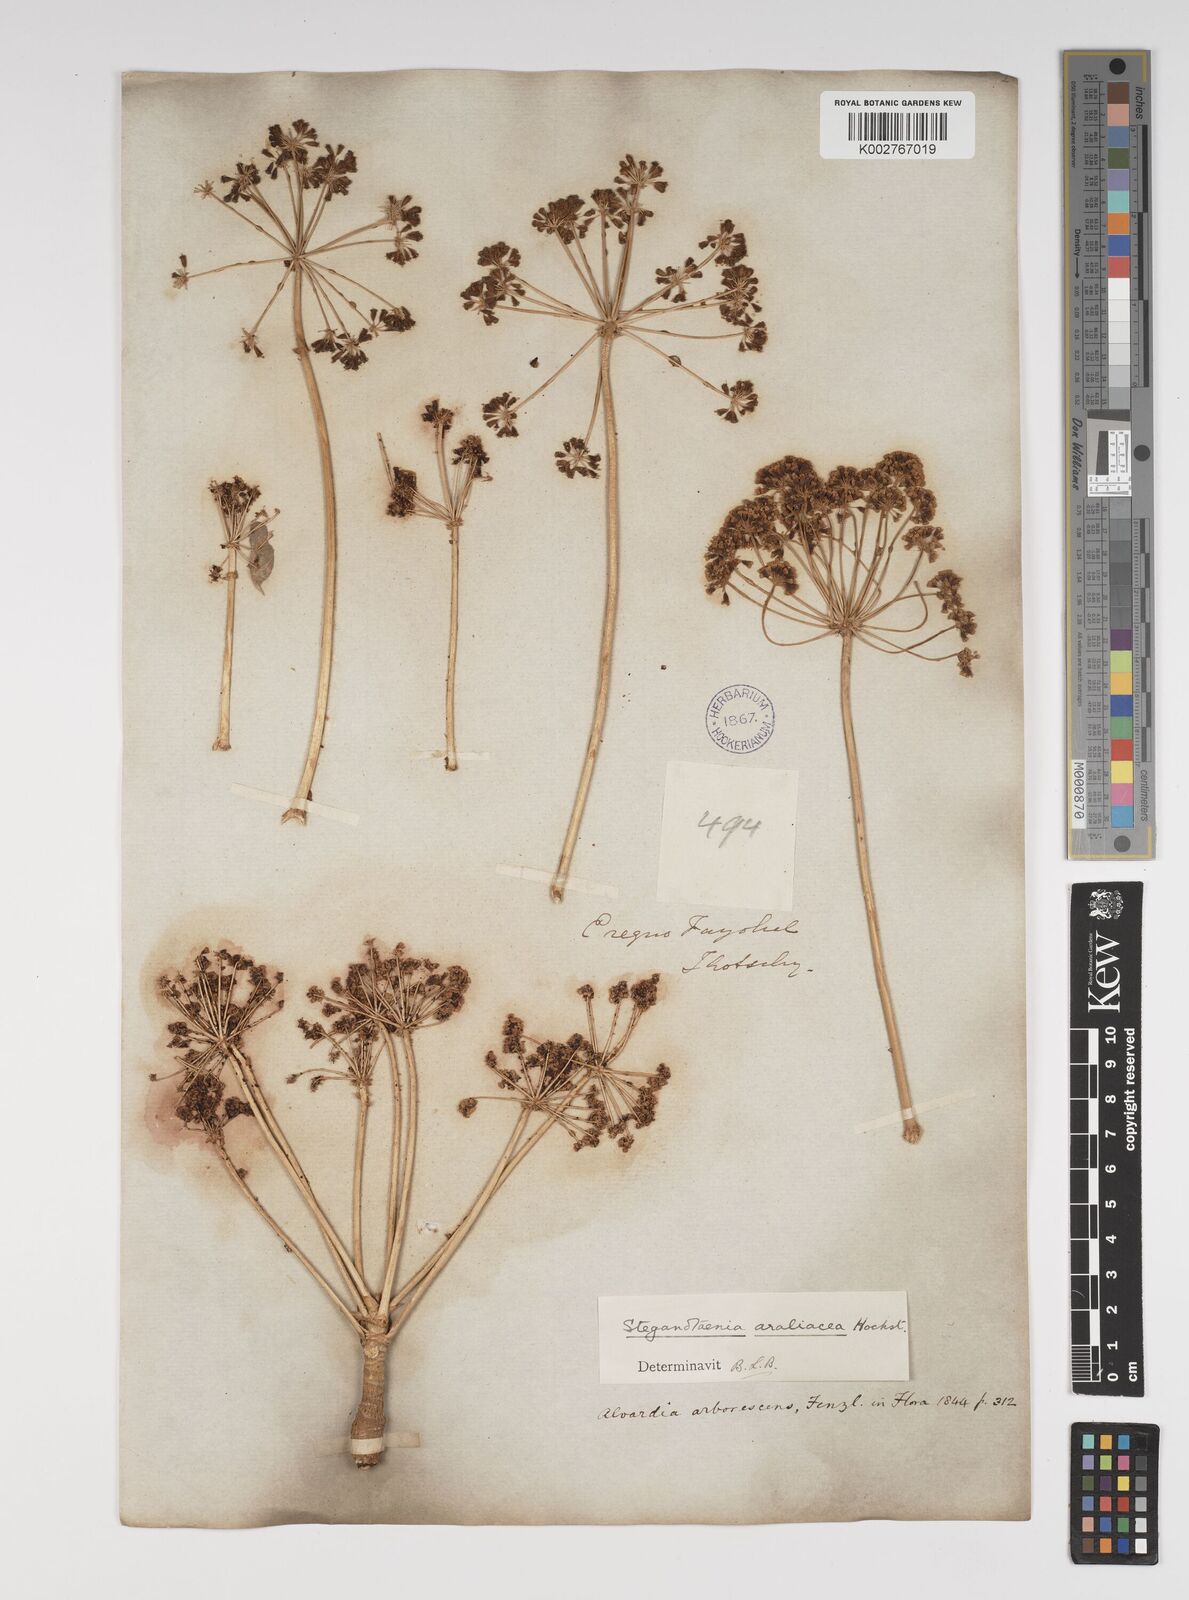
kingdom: Plantae
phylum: Tracheophyta
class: Magnoliopsida
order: Apiales
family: Apiaceae
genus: Steganotaenia
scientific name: Steganotaenia
